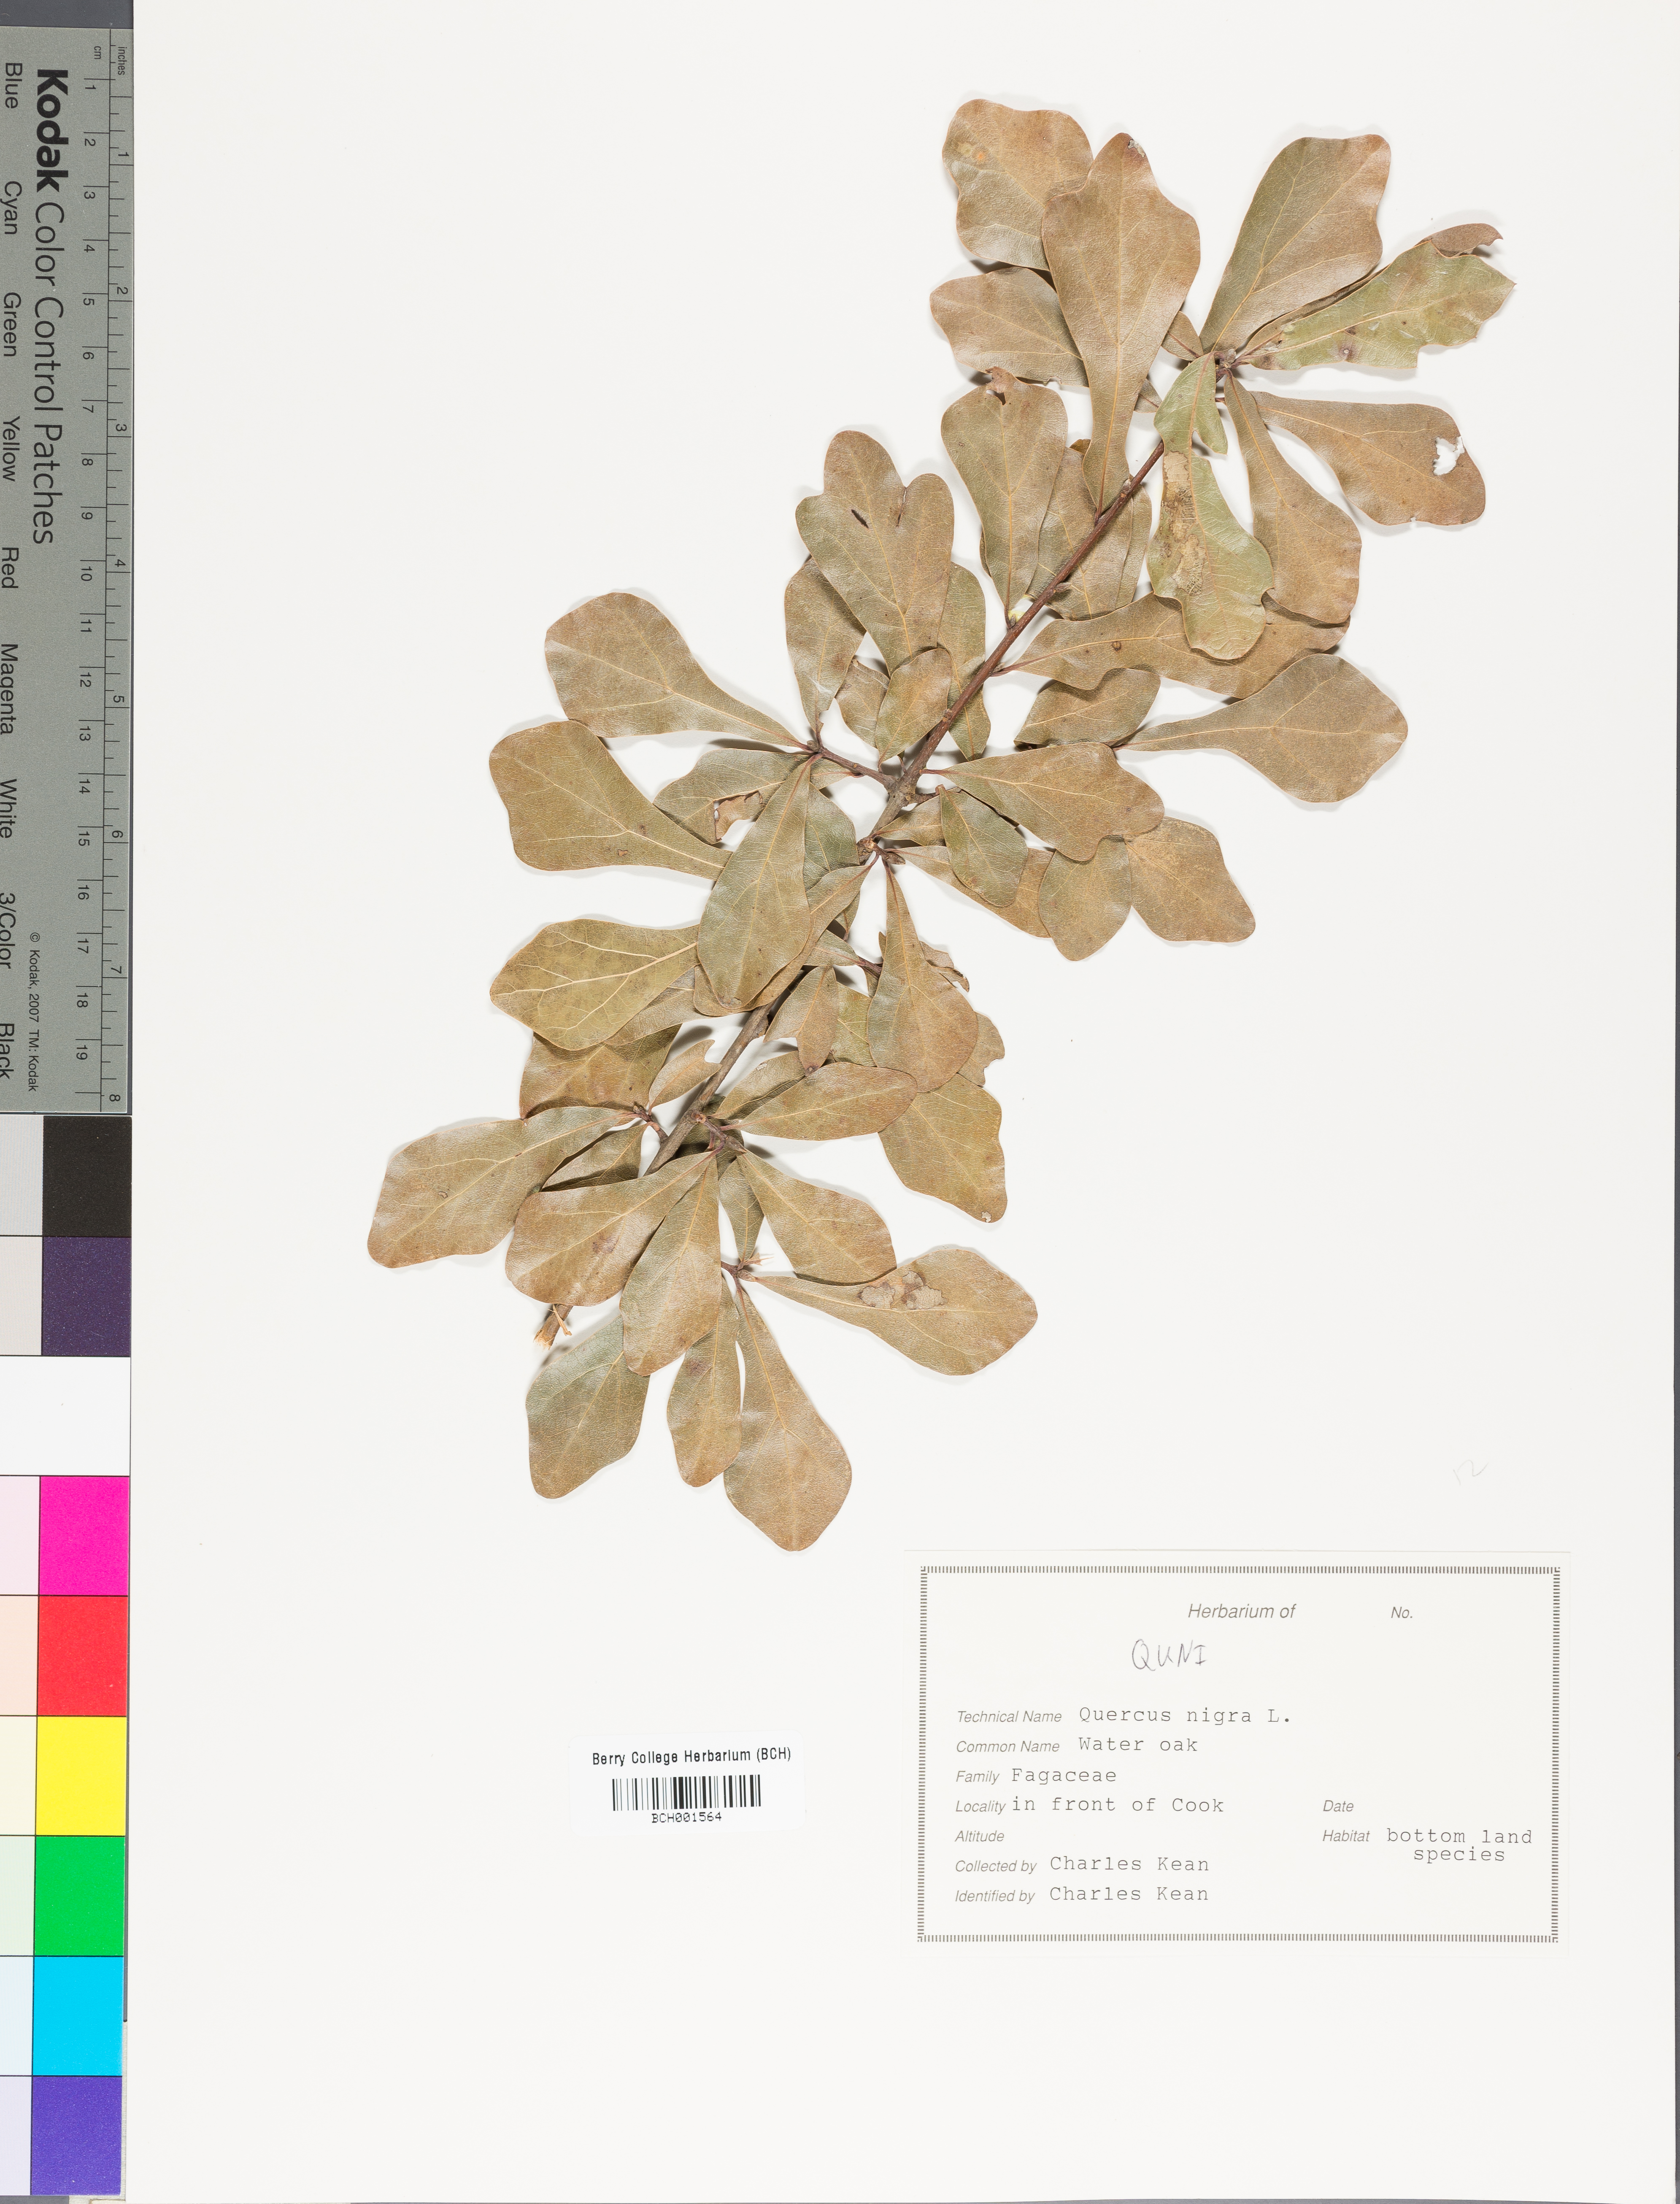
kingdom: Plantae
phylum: Tracheophyta
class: Magnoliopsida
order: Fagales
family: Fagaceae
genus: Quercus
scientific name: Quercus nigra
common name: Water oak
